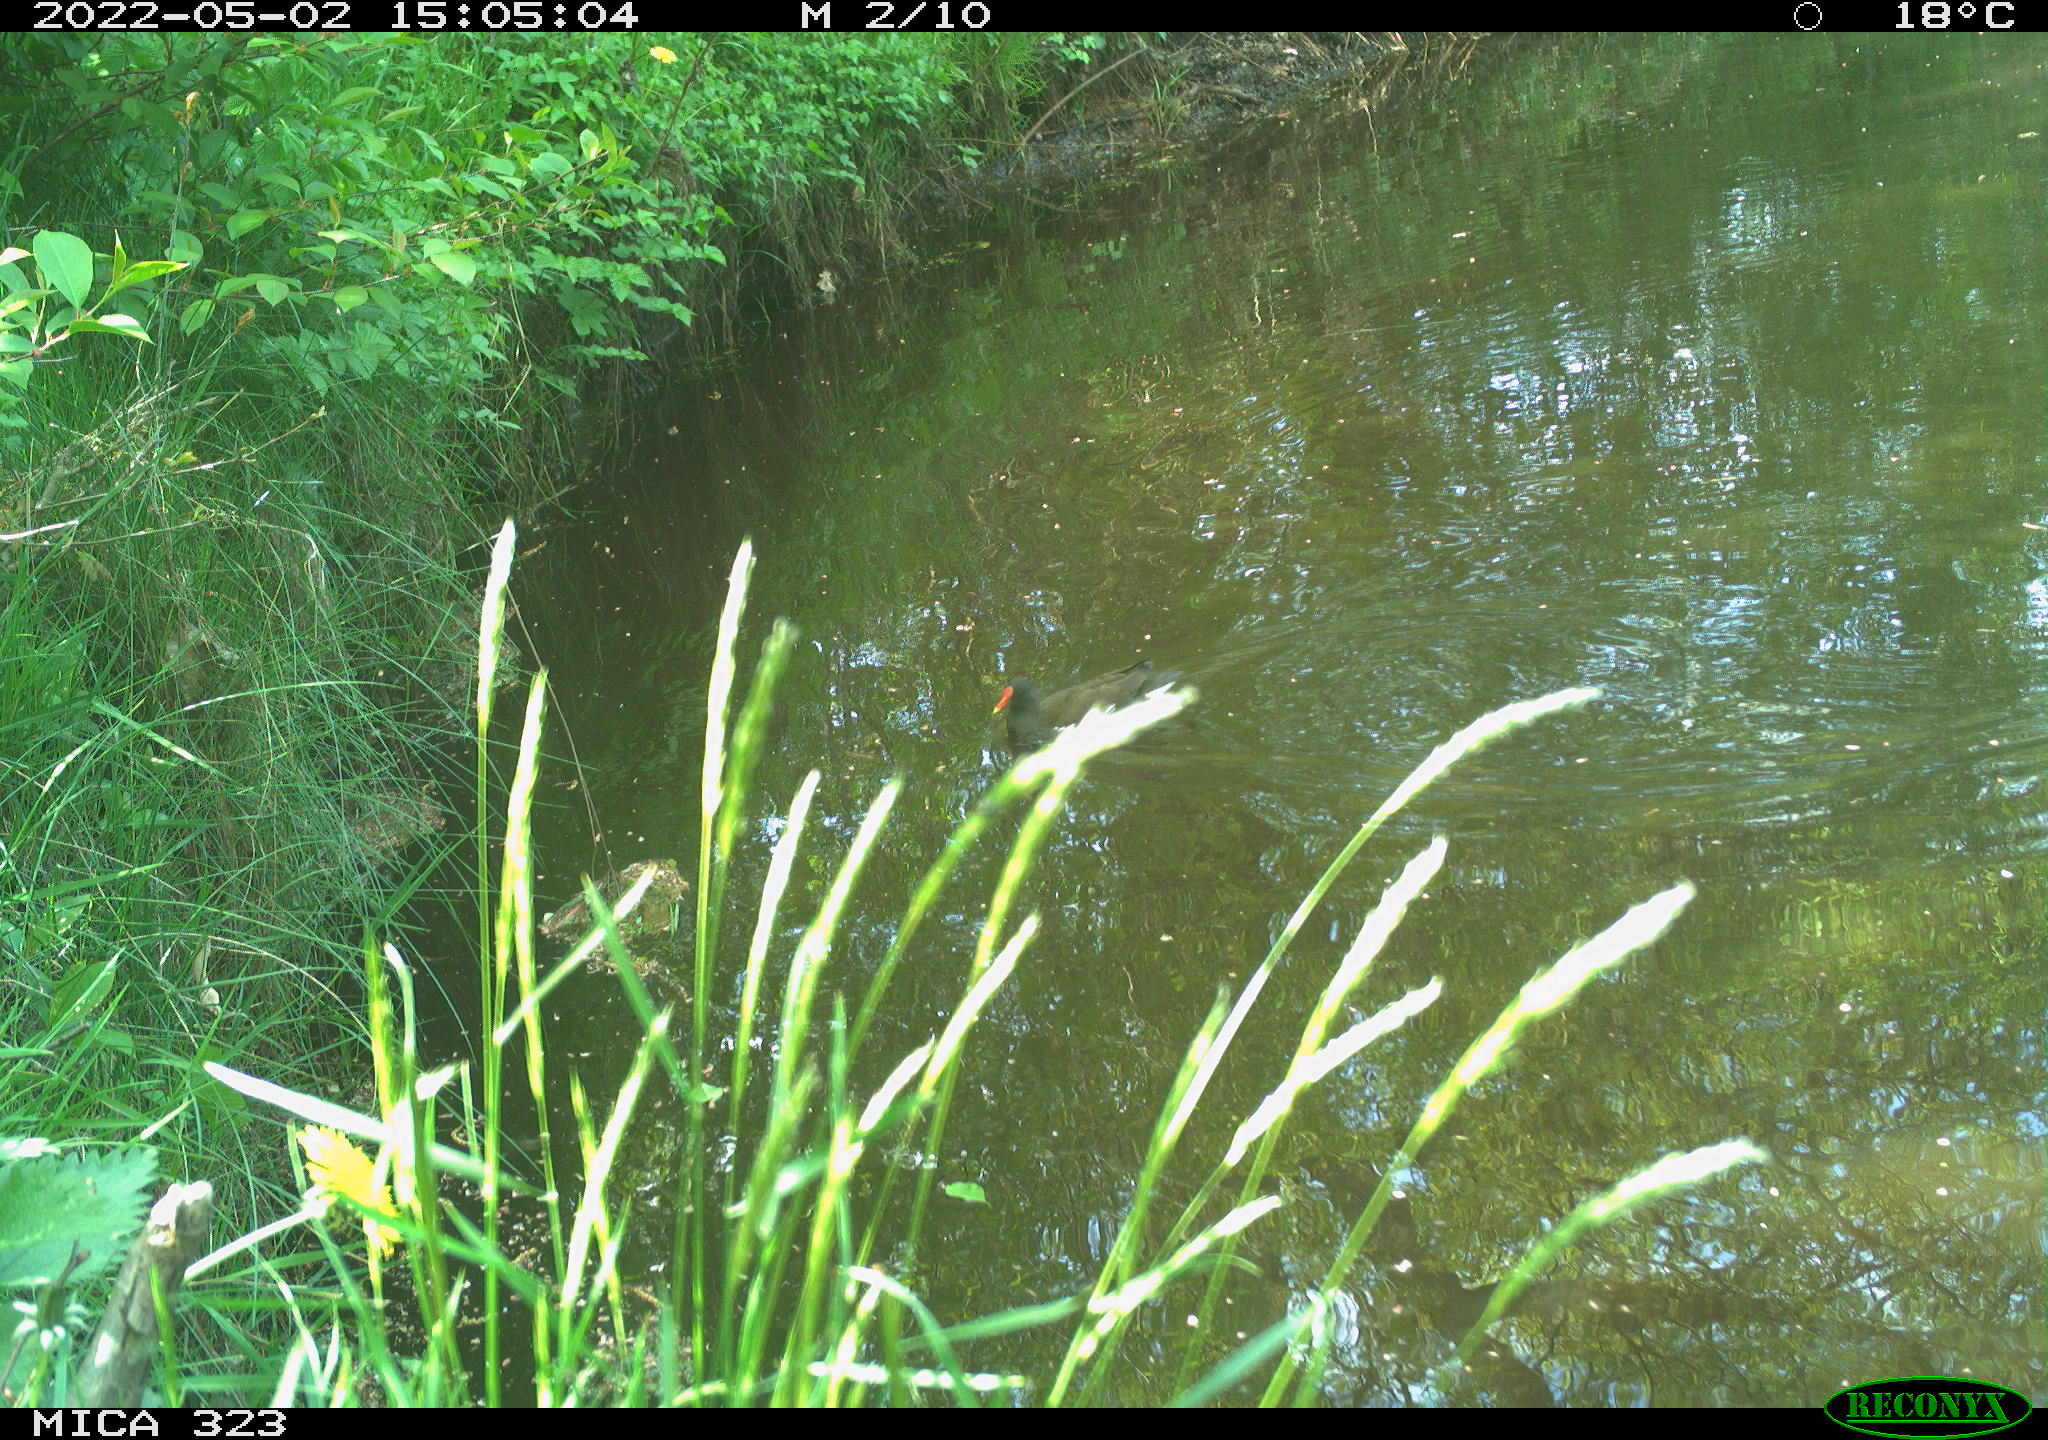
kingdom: Animalia
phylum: Chordata
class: Aves
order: Gruiformes
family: Rallidae
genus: Gallinula
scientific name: Gallinula chloropus
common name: Common moorhen
